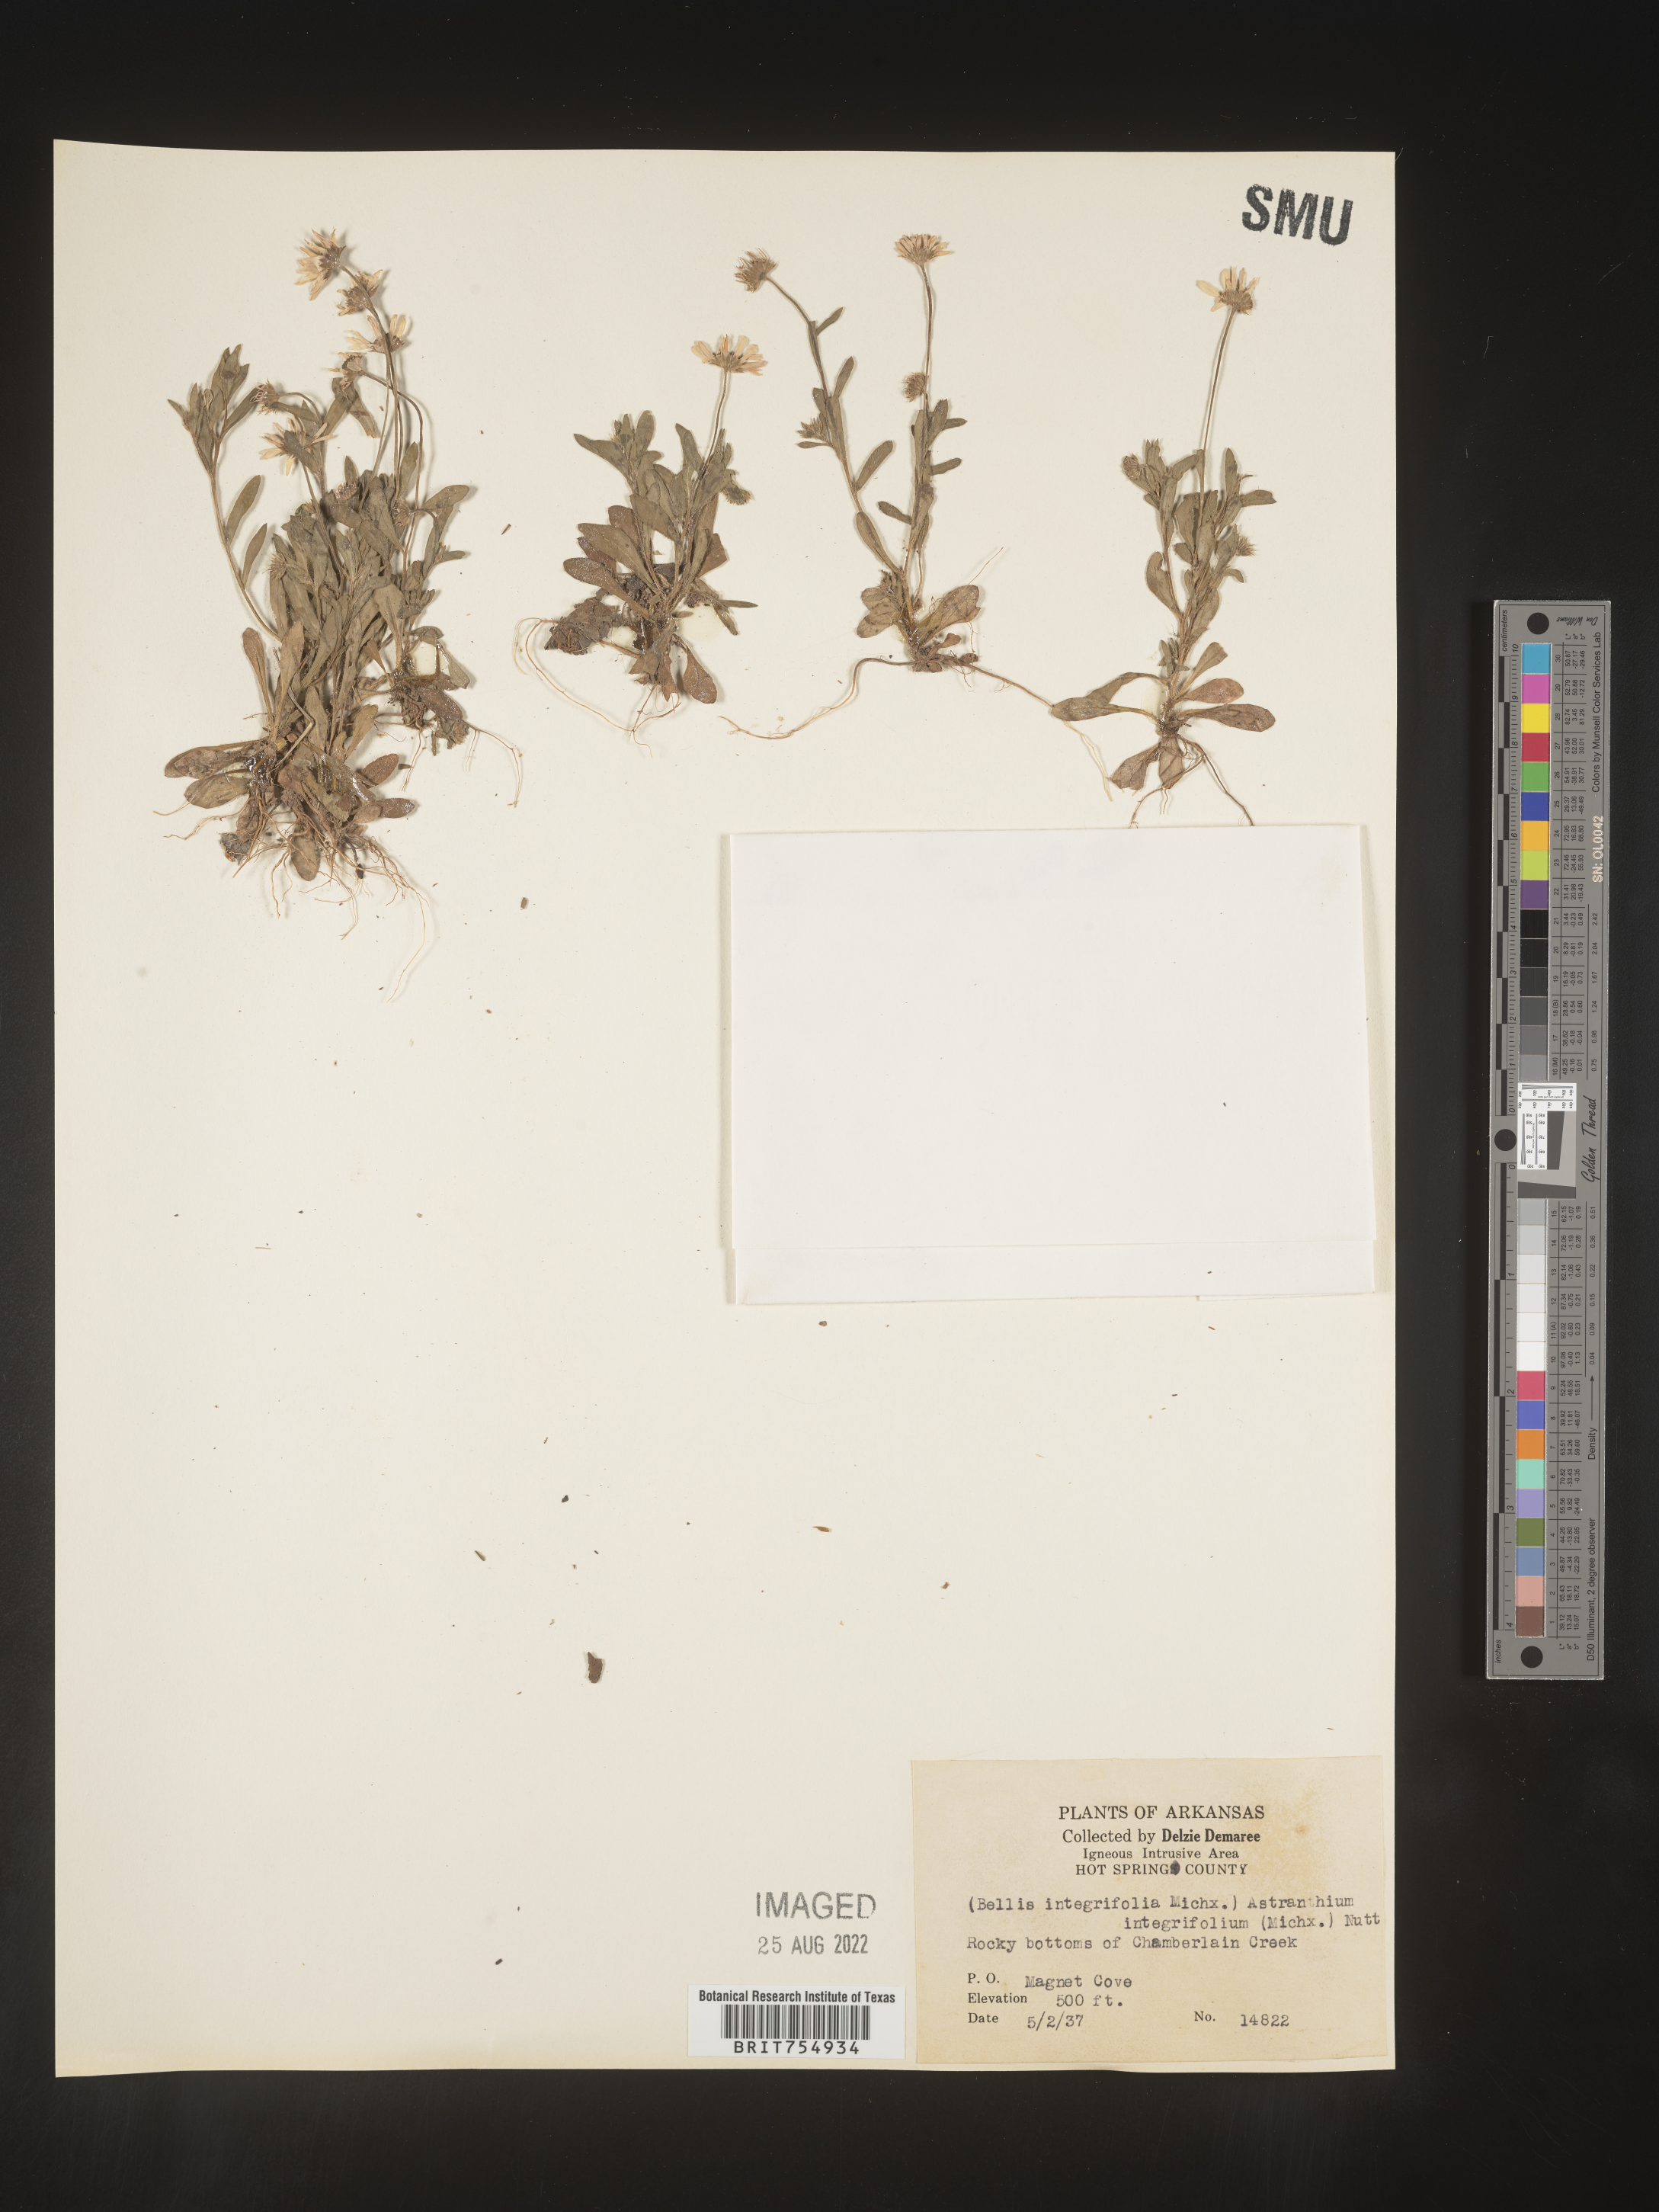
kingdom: Plantae
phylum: Tracheophyta
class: Magnoliopsida
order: Asterales
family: Asteraceae
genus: Symphyotrichum
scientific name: Symphyotrichum
